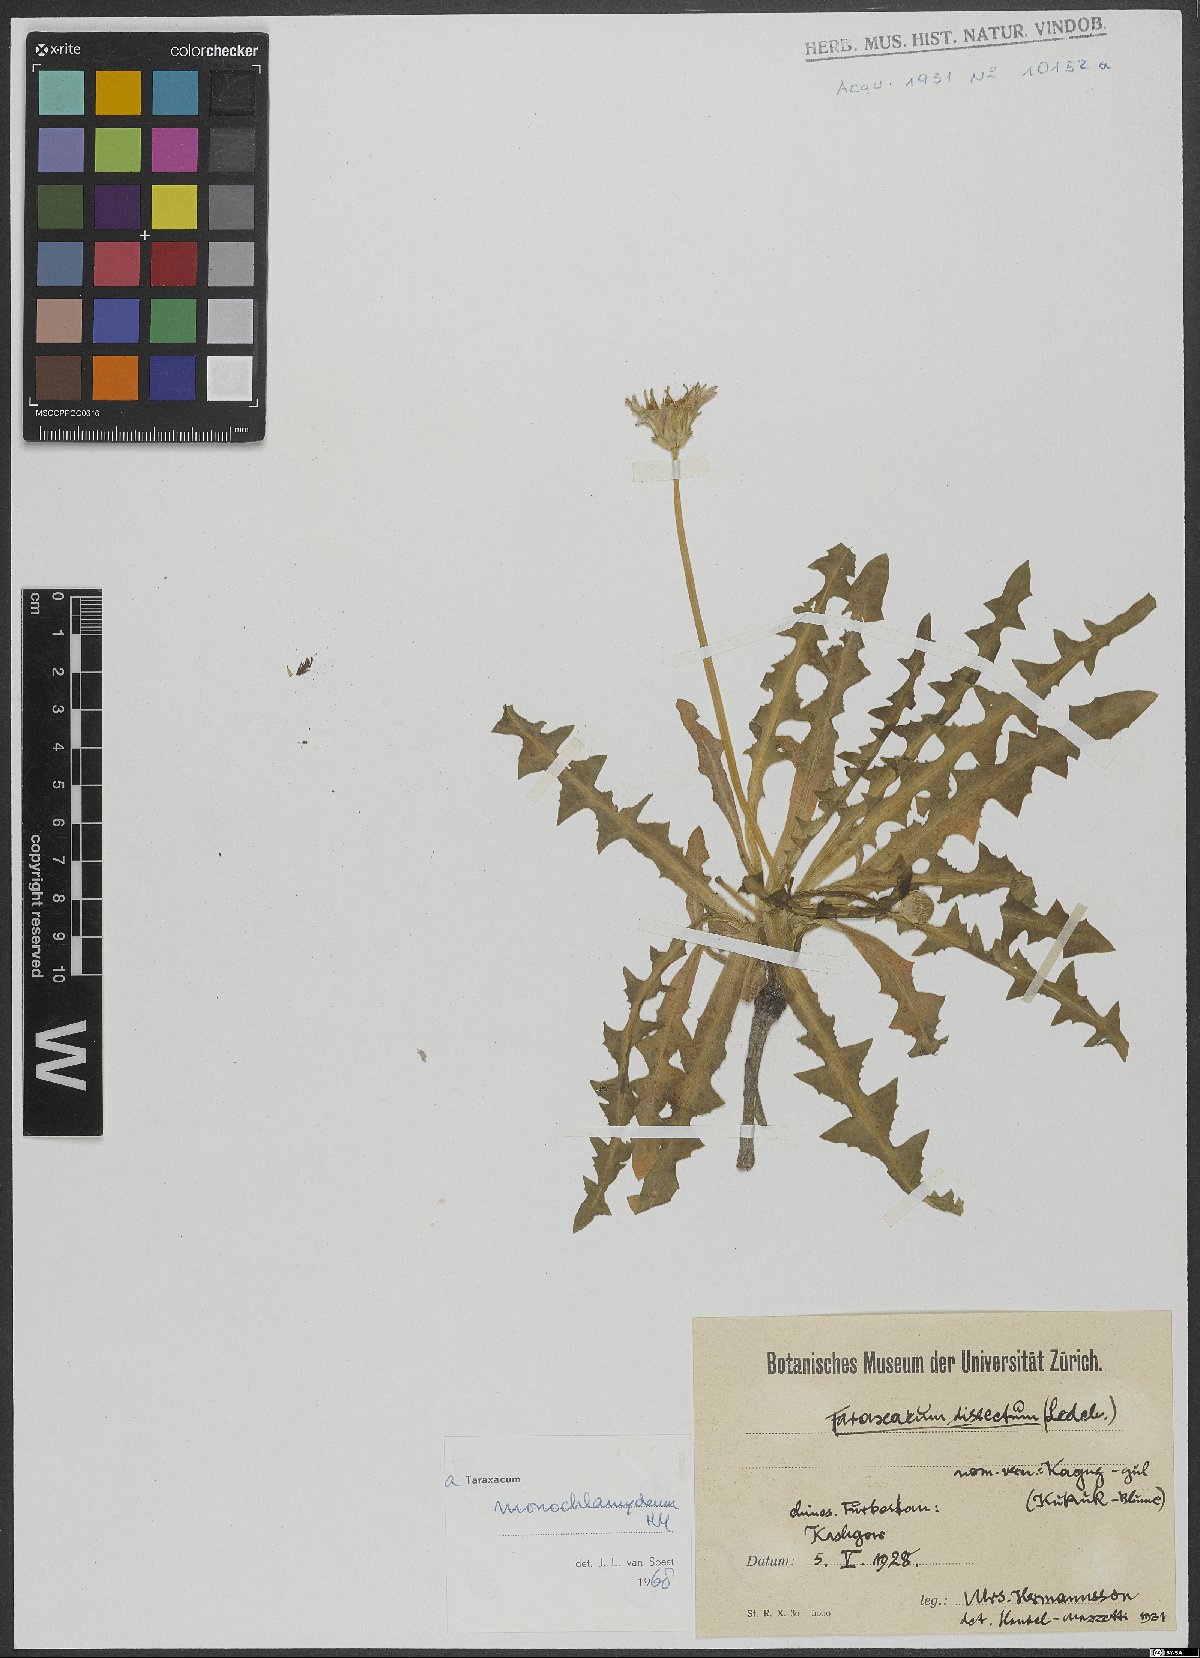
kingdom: Plantae
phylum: Tracheophyta
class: Magnoliopsida
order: Asterales
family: Asteraceae
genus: Taraxacum
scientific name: Taraxacum monochlamydeum
